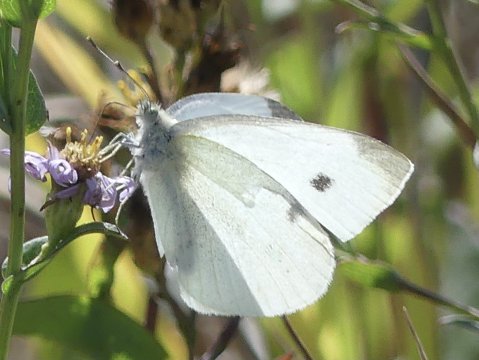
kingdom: Animalia
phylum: Arthropoda
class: Insecta
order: Lepidoptera
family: Pieridae
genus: Pieris
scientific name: Pieris rapae
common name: Cabbage White
